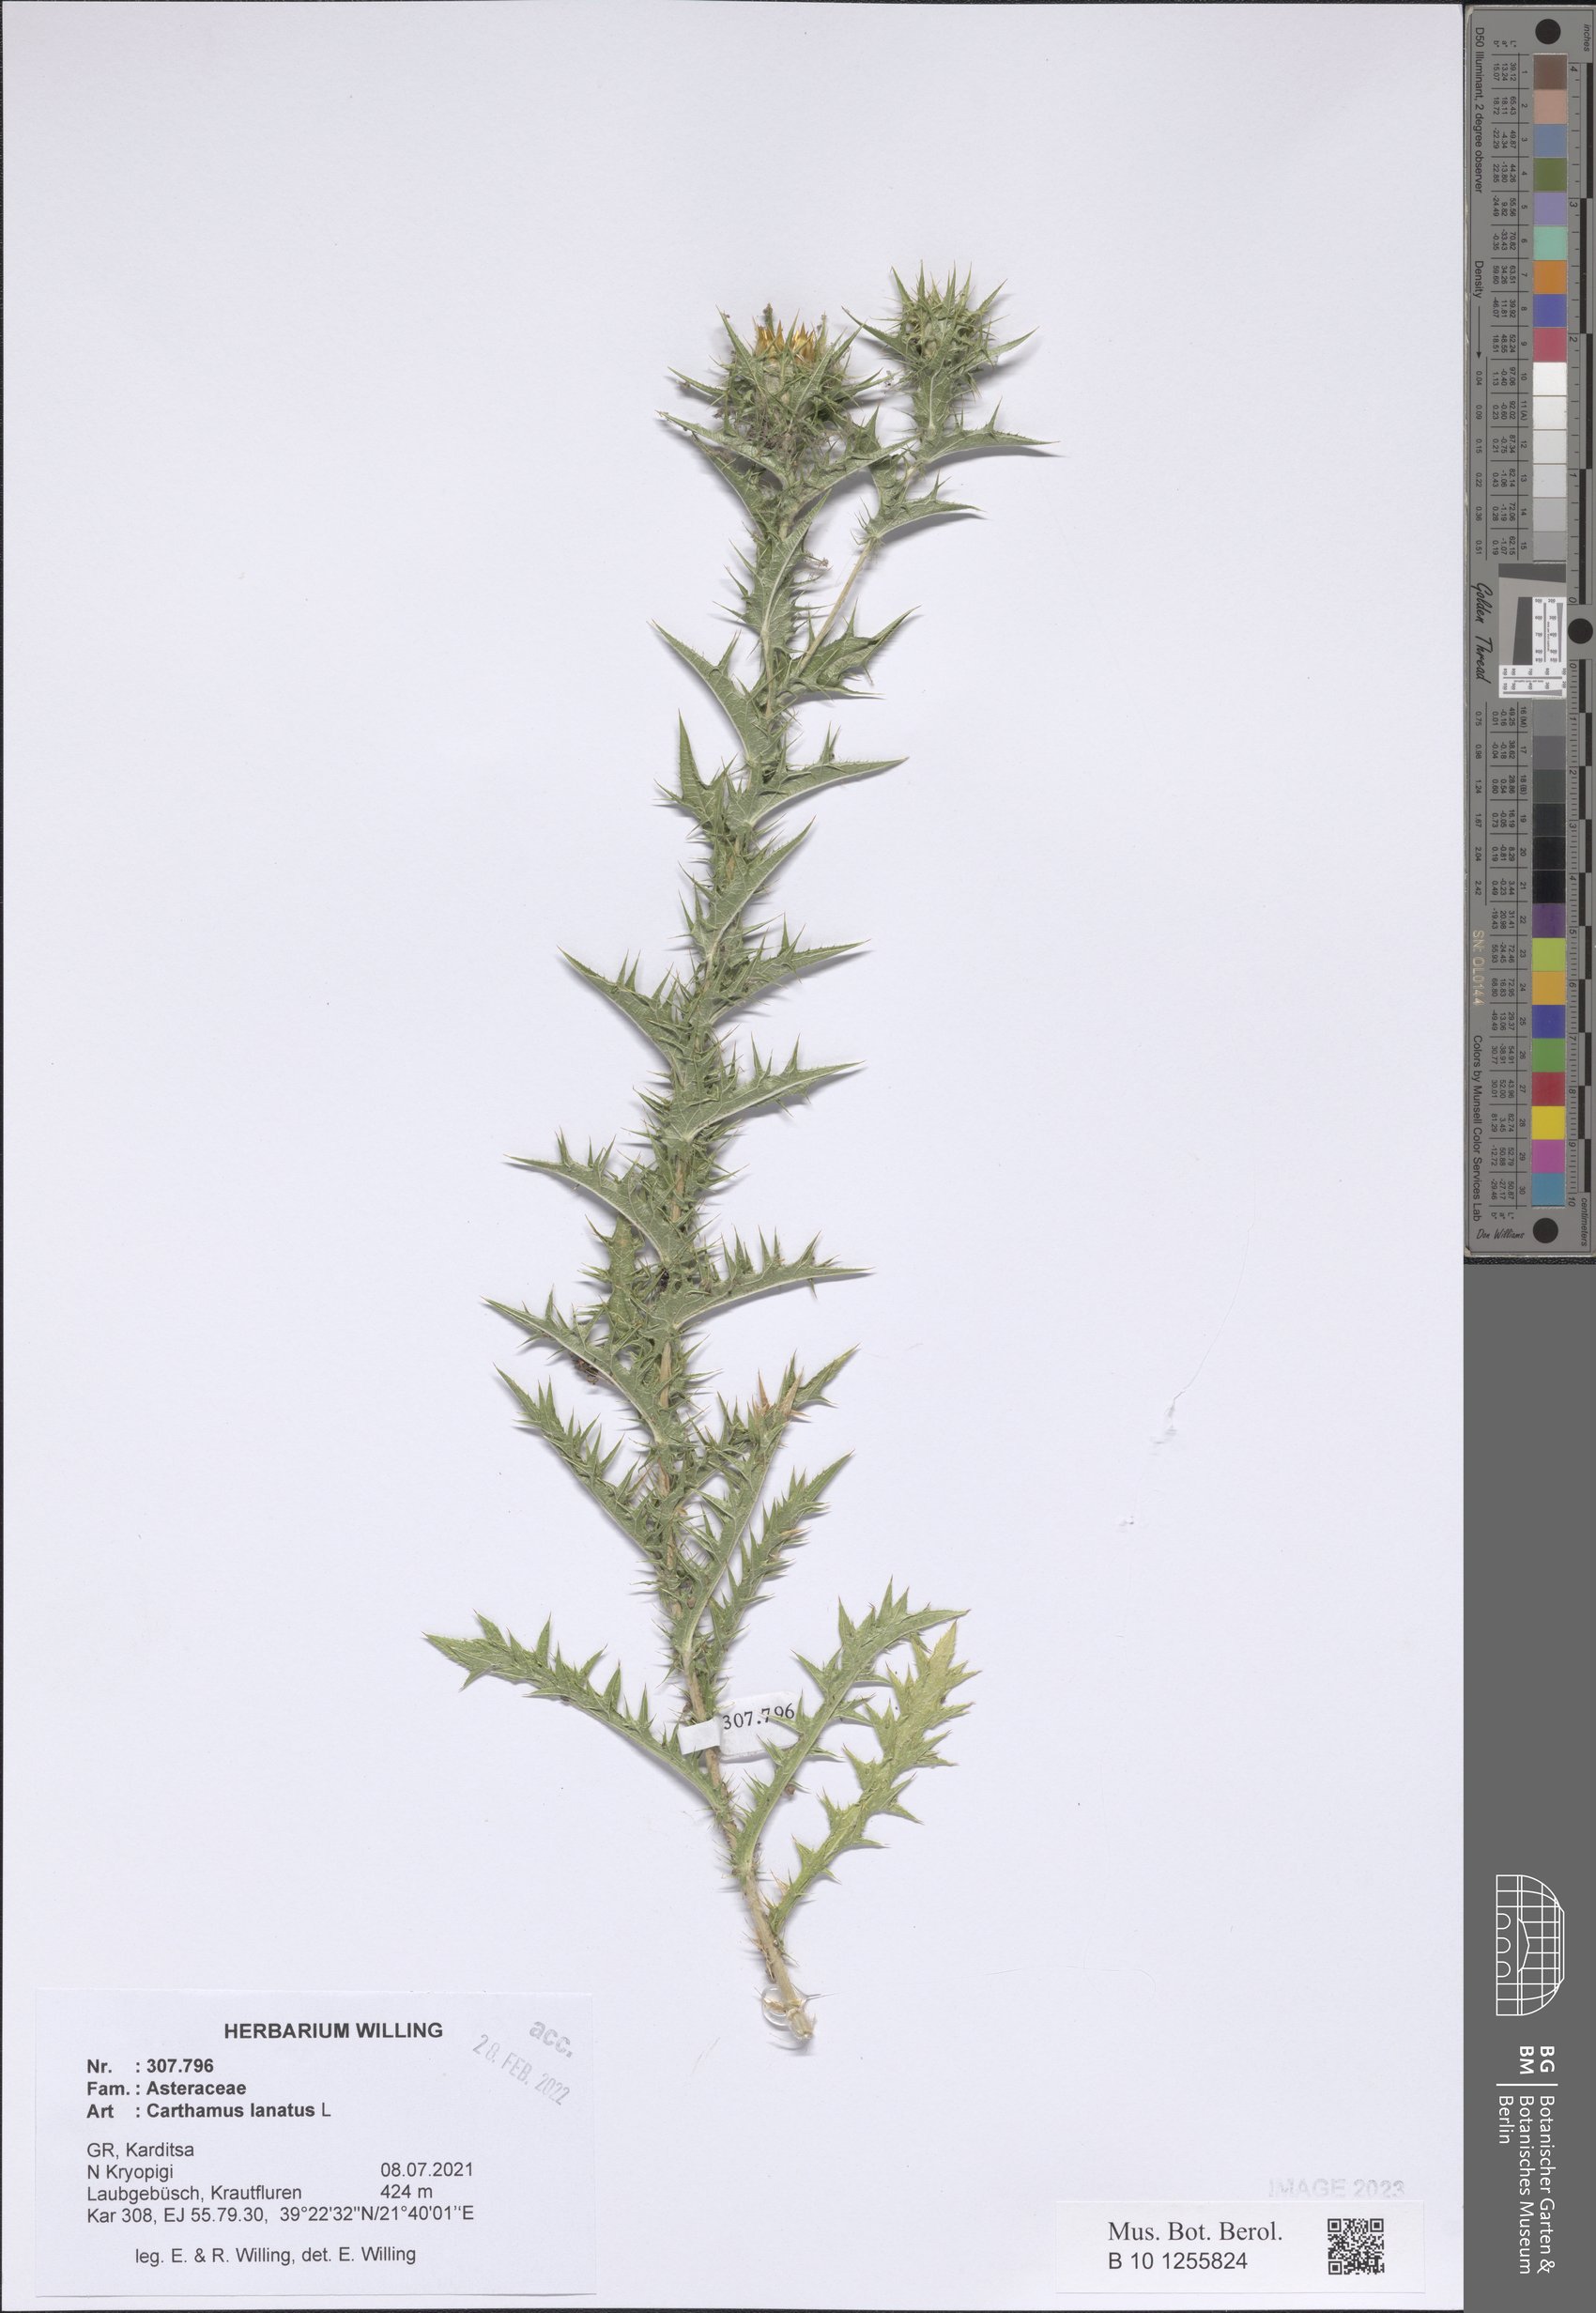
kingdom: Plantae
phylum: Tracheophyta
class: Magnoliopsida
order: Asterales
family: Asteraceae
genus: Carthamus
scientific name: Carthamus lanatus
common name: Downy safflower
